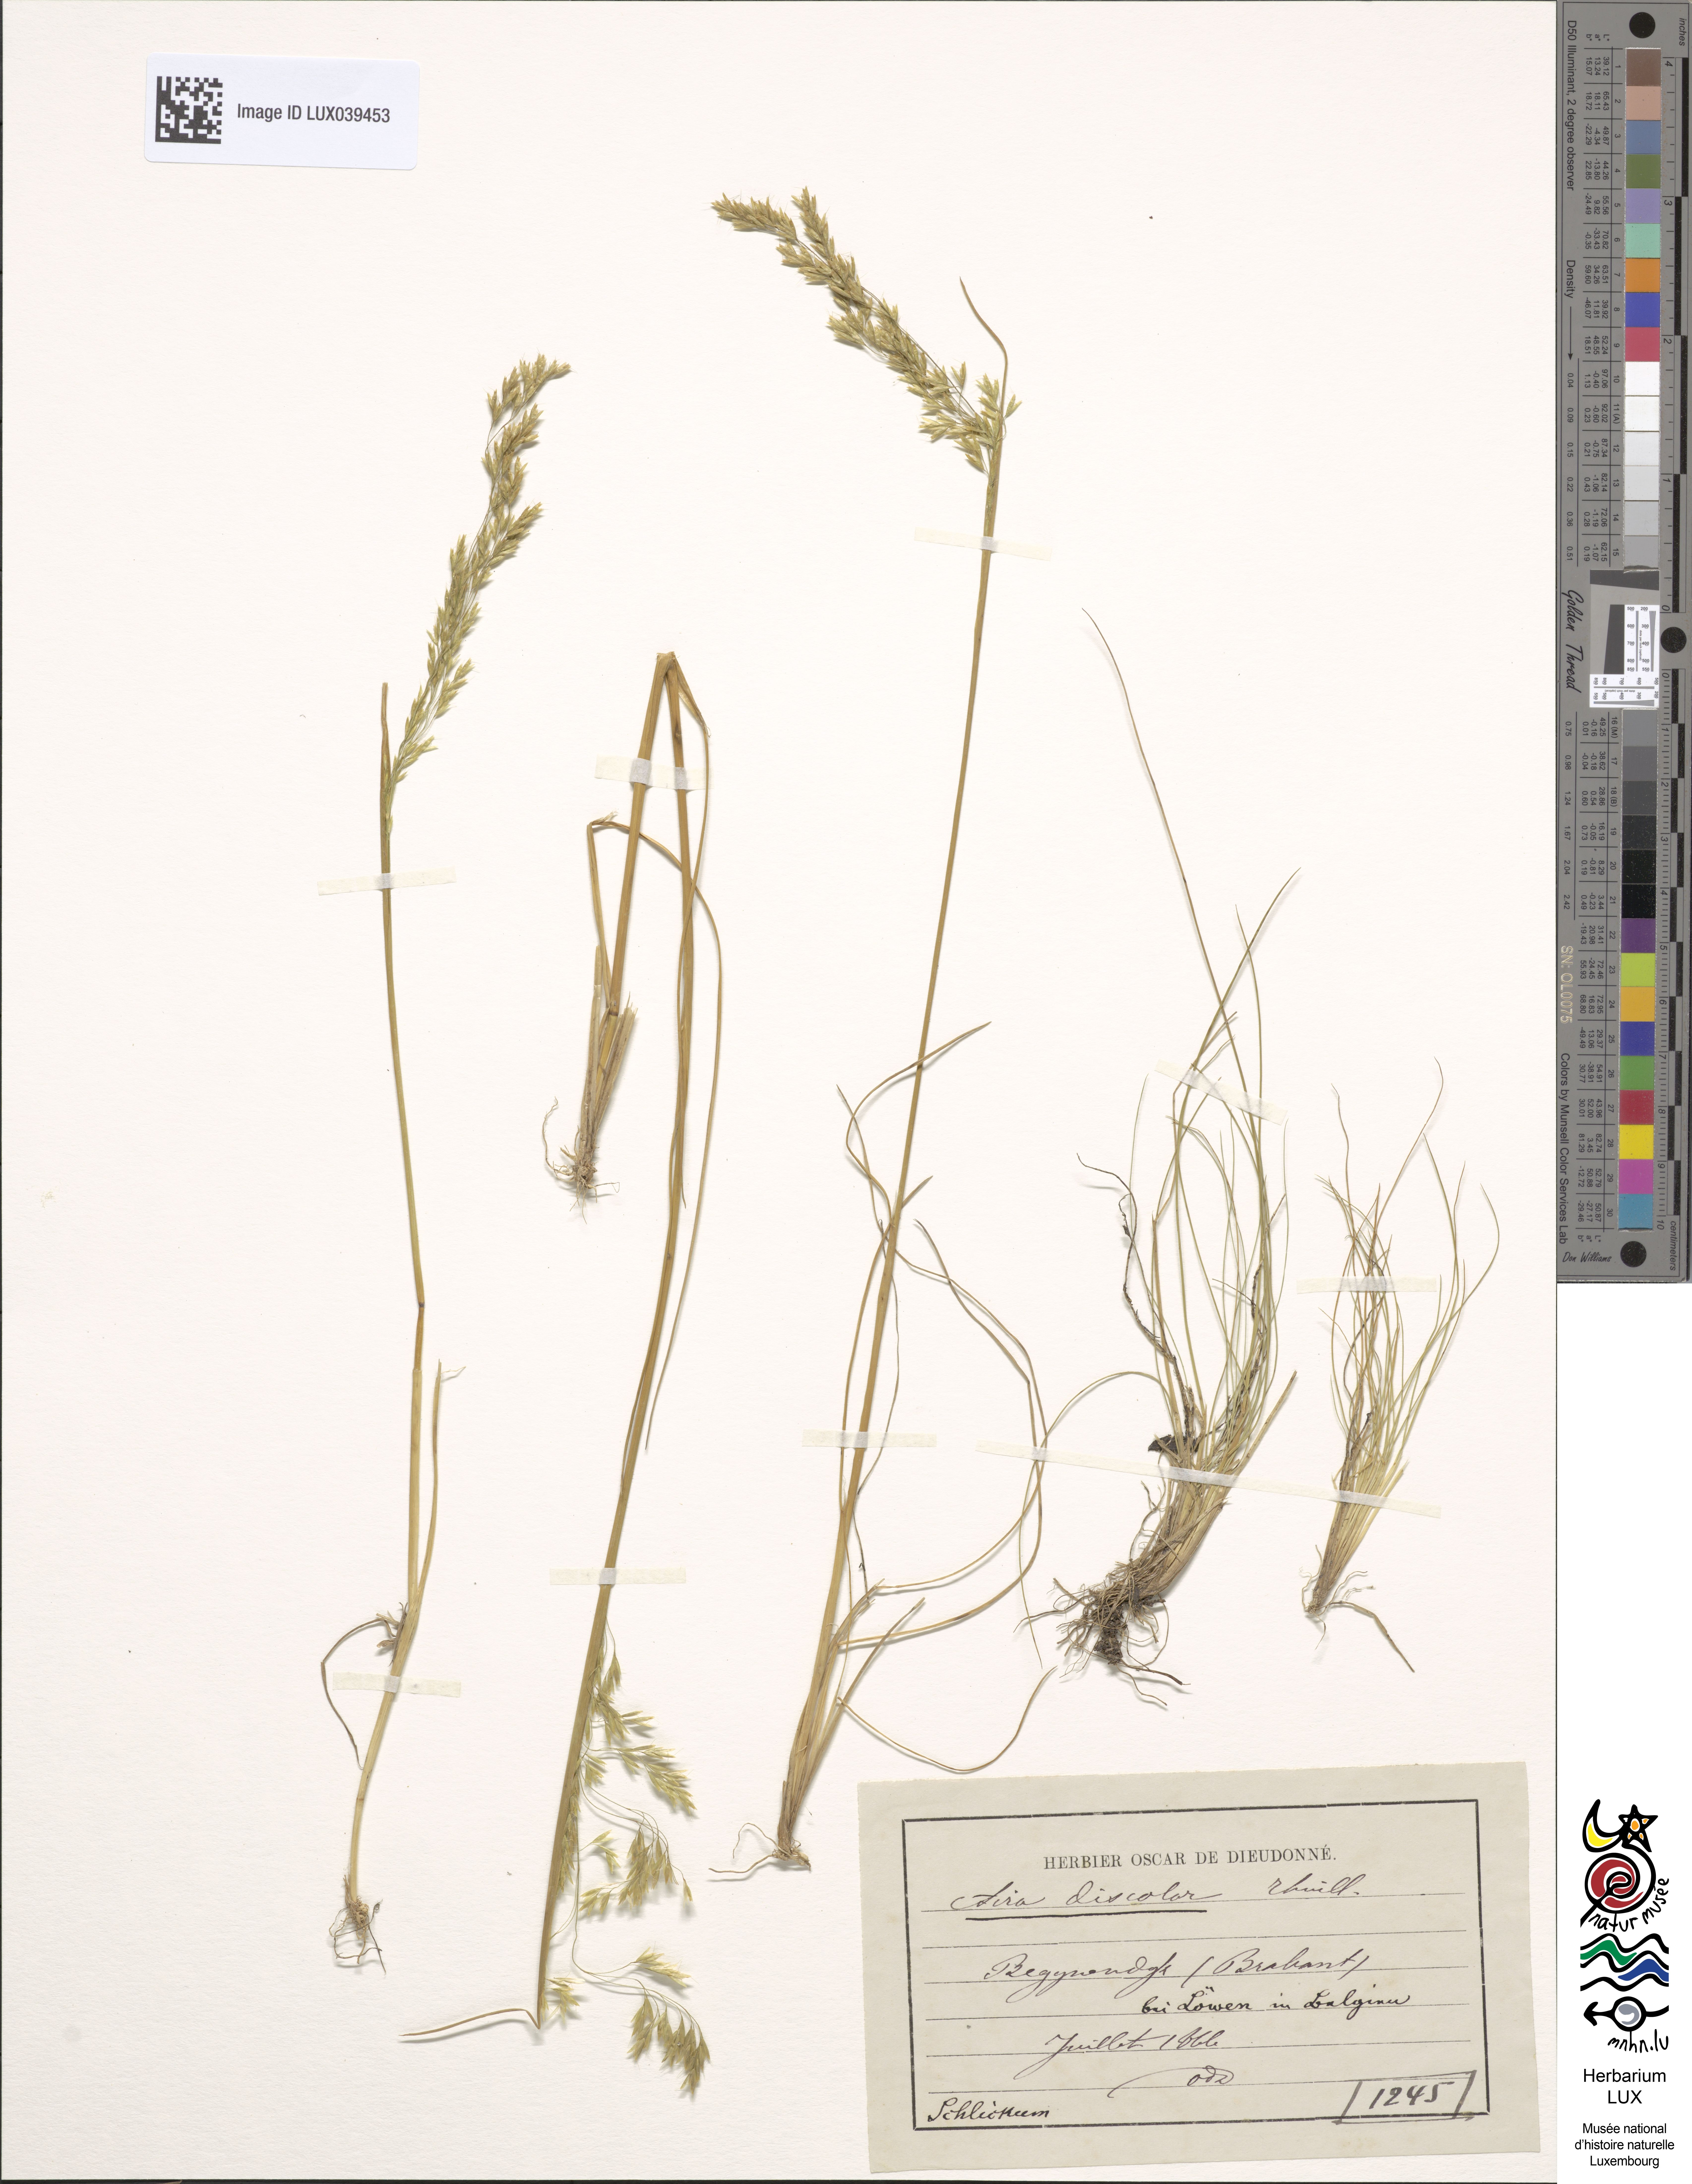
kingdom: Plantae
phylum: Tracheophyta
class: Liliopsida
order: Poales
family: Poaceae
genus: Deschampsia
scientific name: Deschampsia setacea
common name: Bog hair-grass
